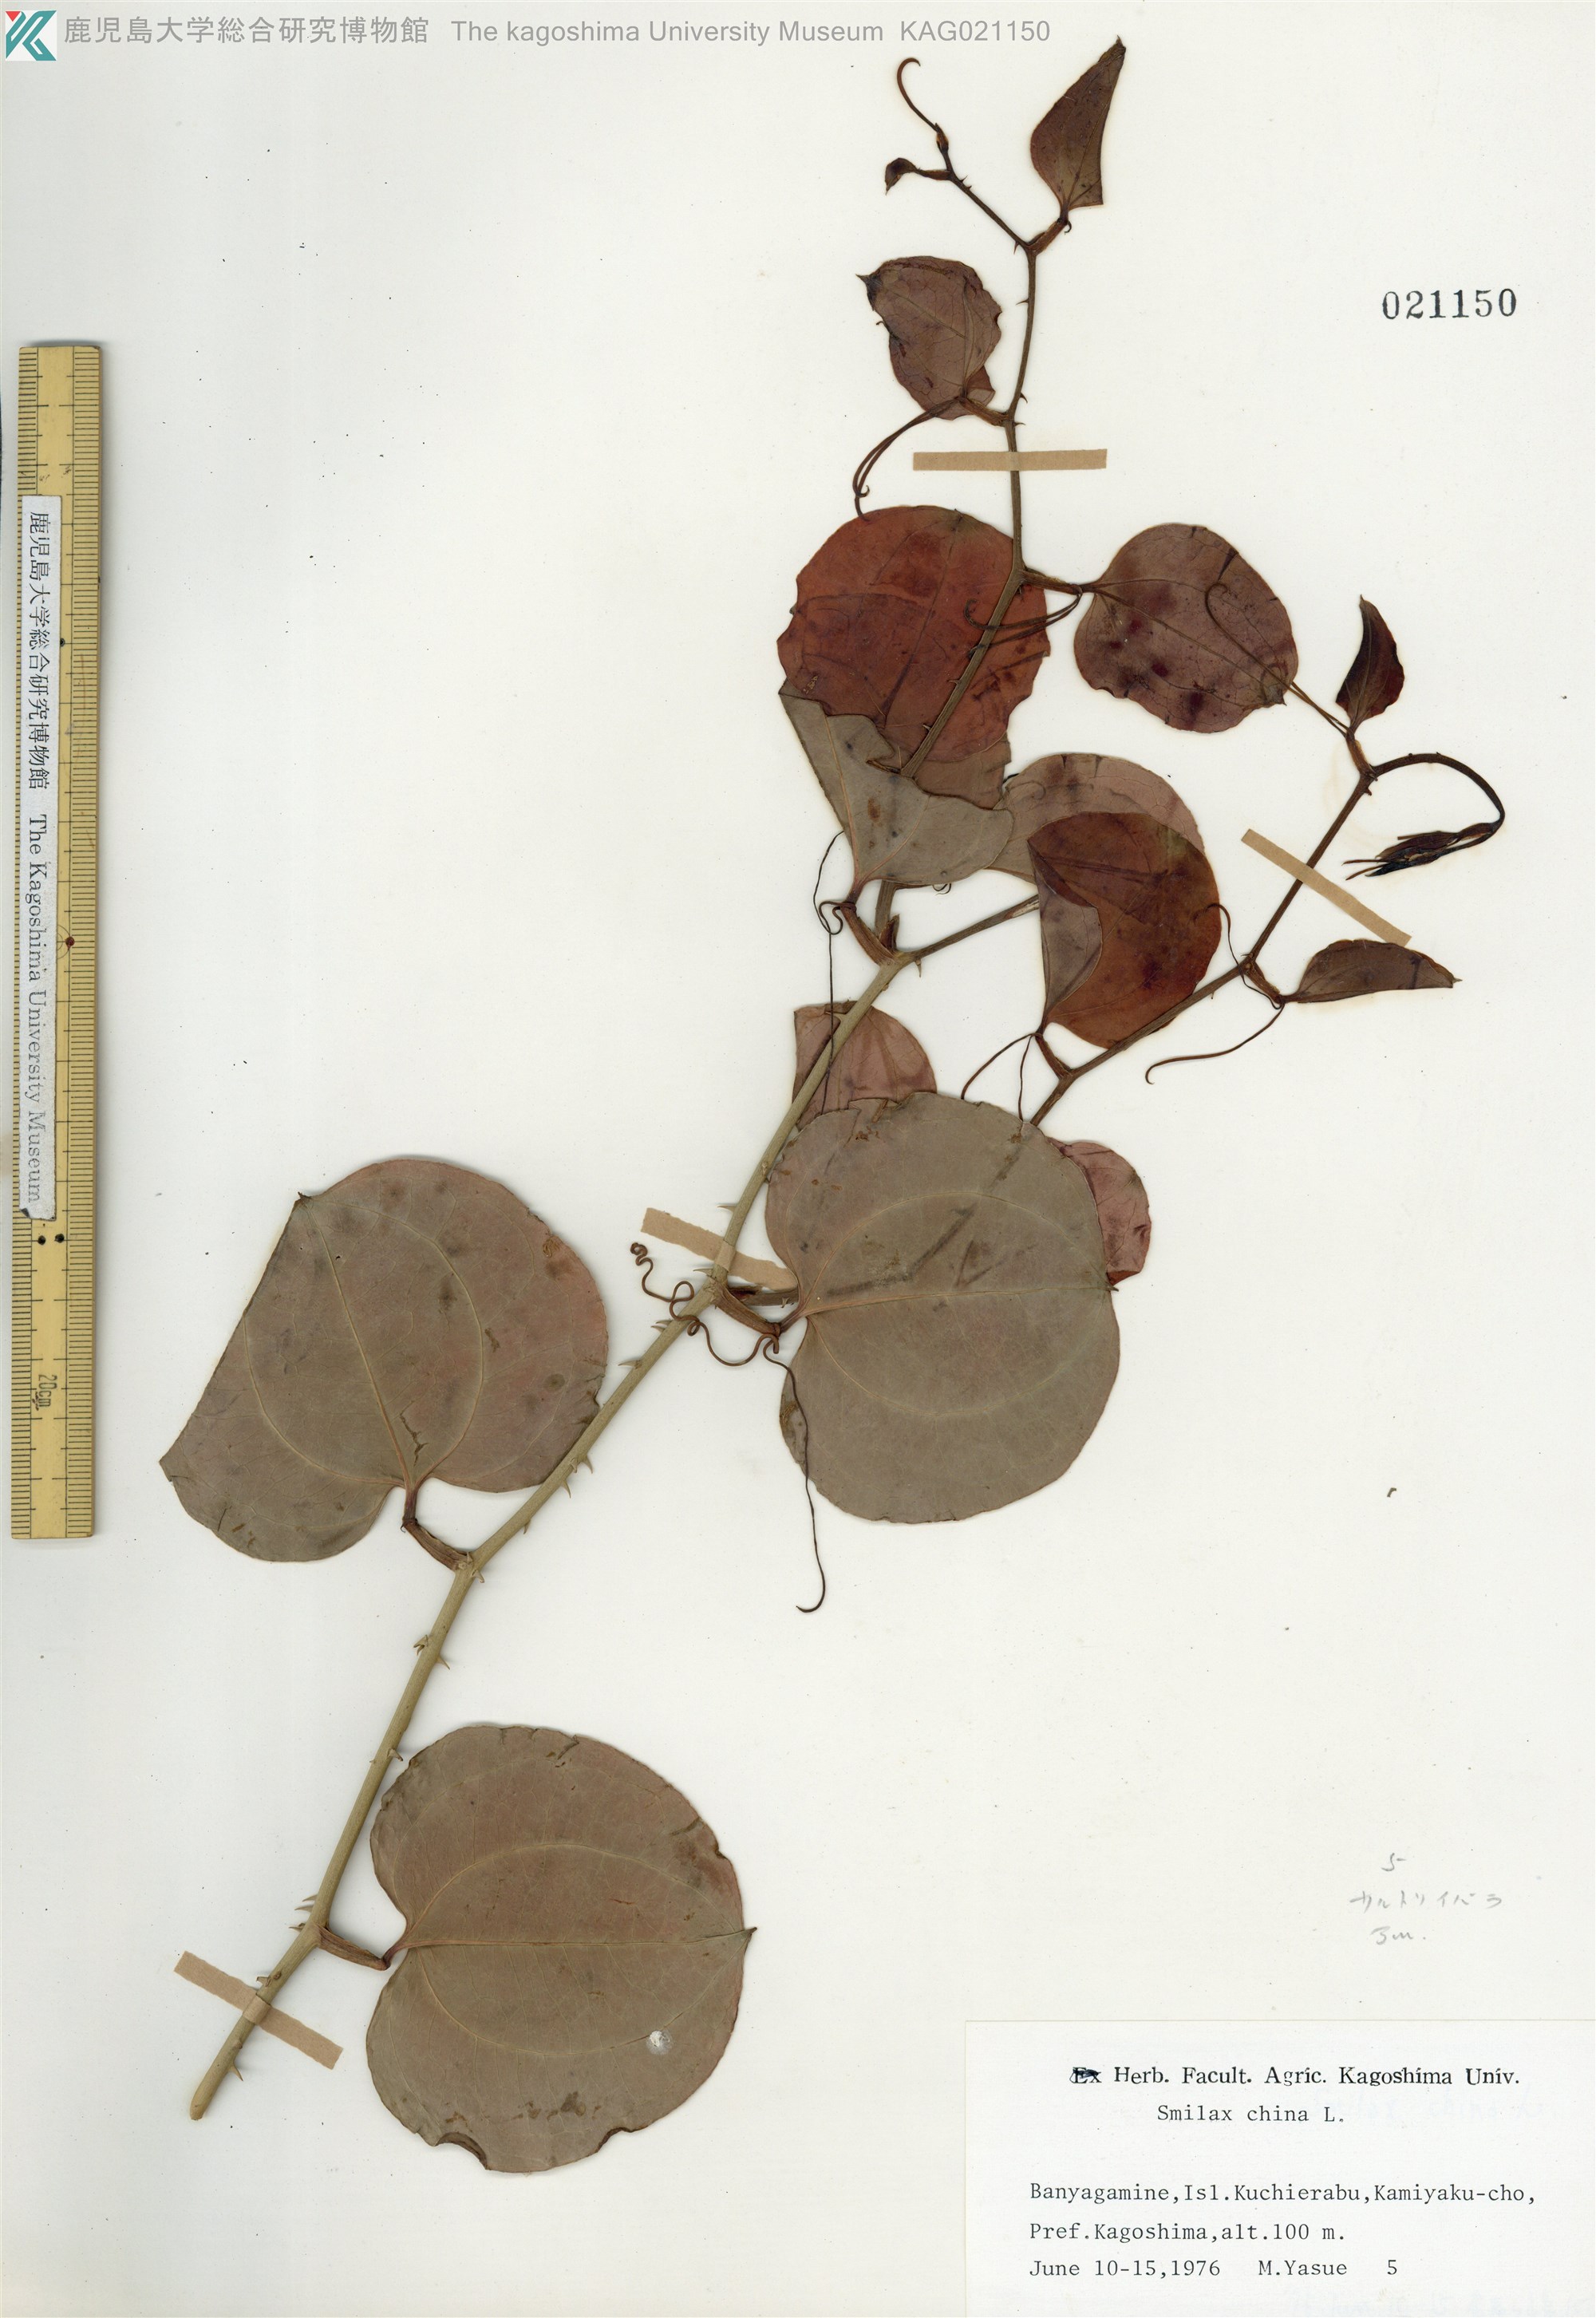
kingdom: Plantae
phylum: Tracheophyta
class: Liliopsida
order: Liliales
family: Smilacaceae
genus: Smilax
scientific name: Smilax china
